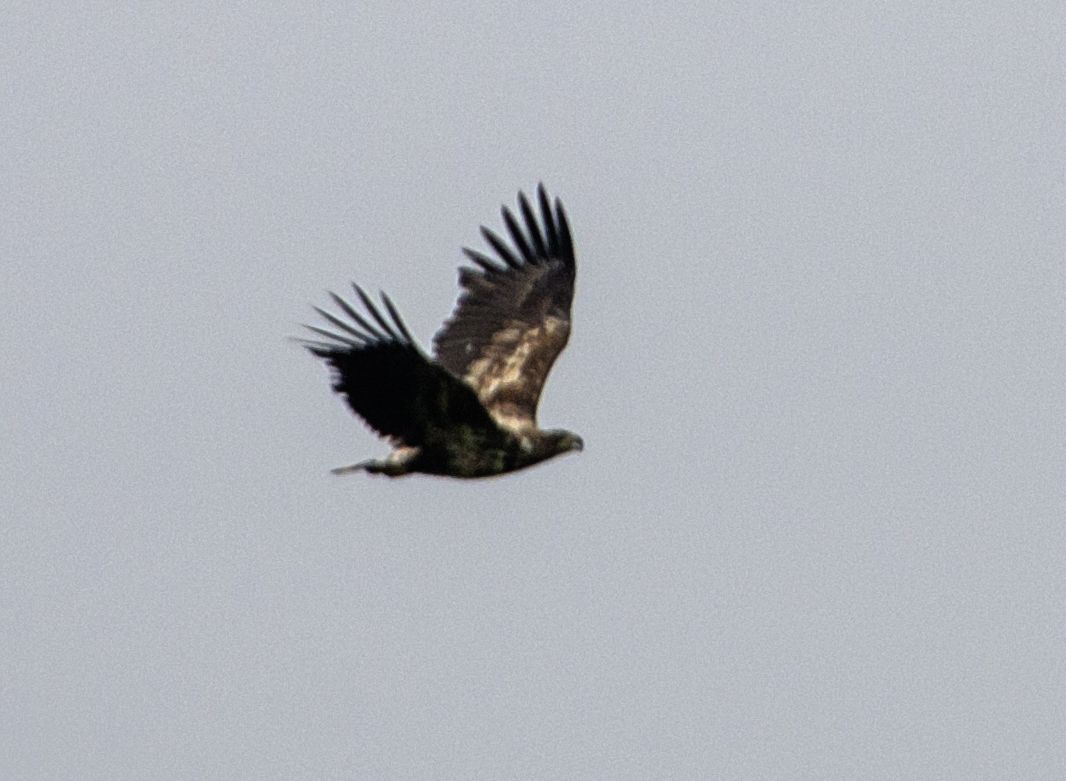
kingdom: Animalia
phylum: Chordata
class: Aves
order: Accipitriformes
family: Accipitridae
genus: Haliaeetus
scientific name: Haliaeetus albicilla
